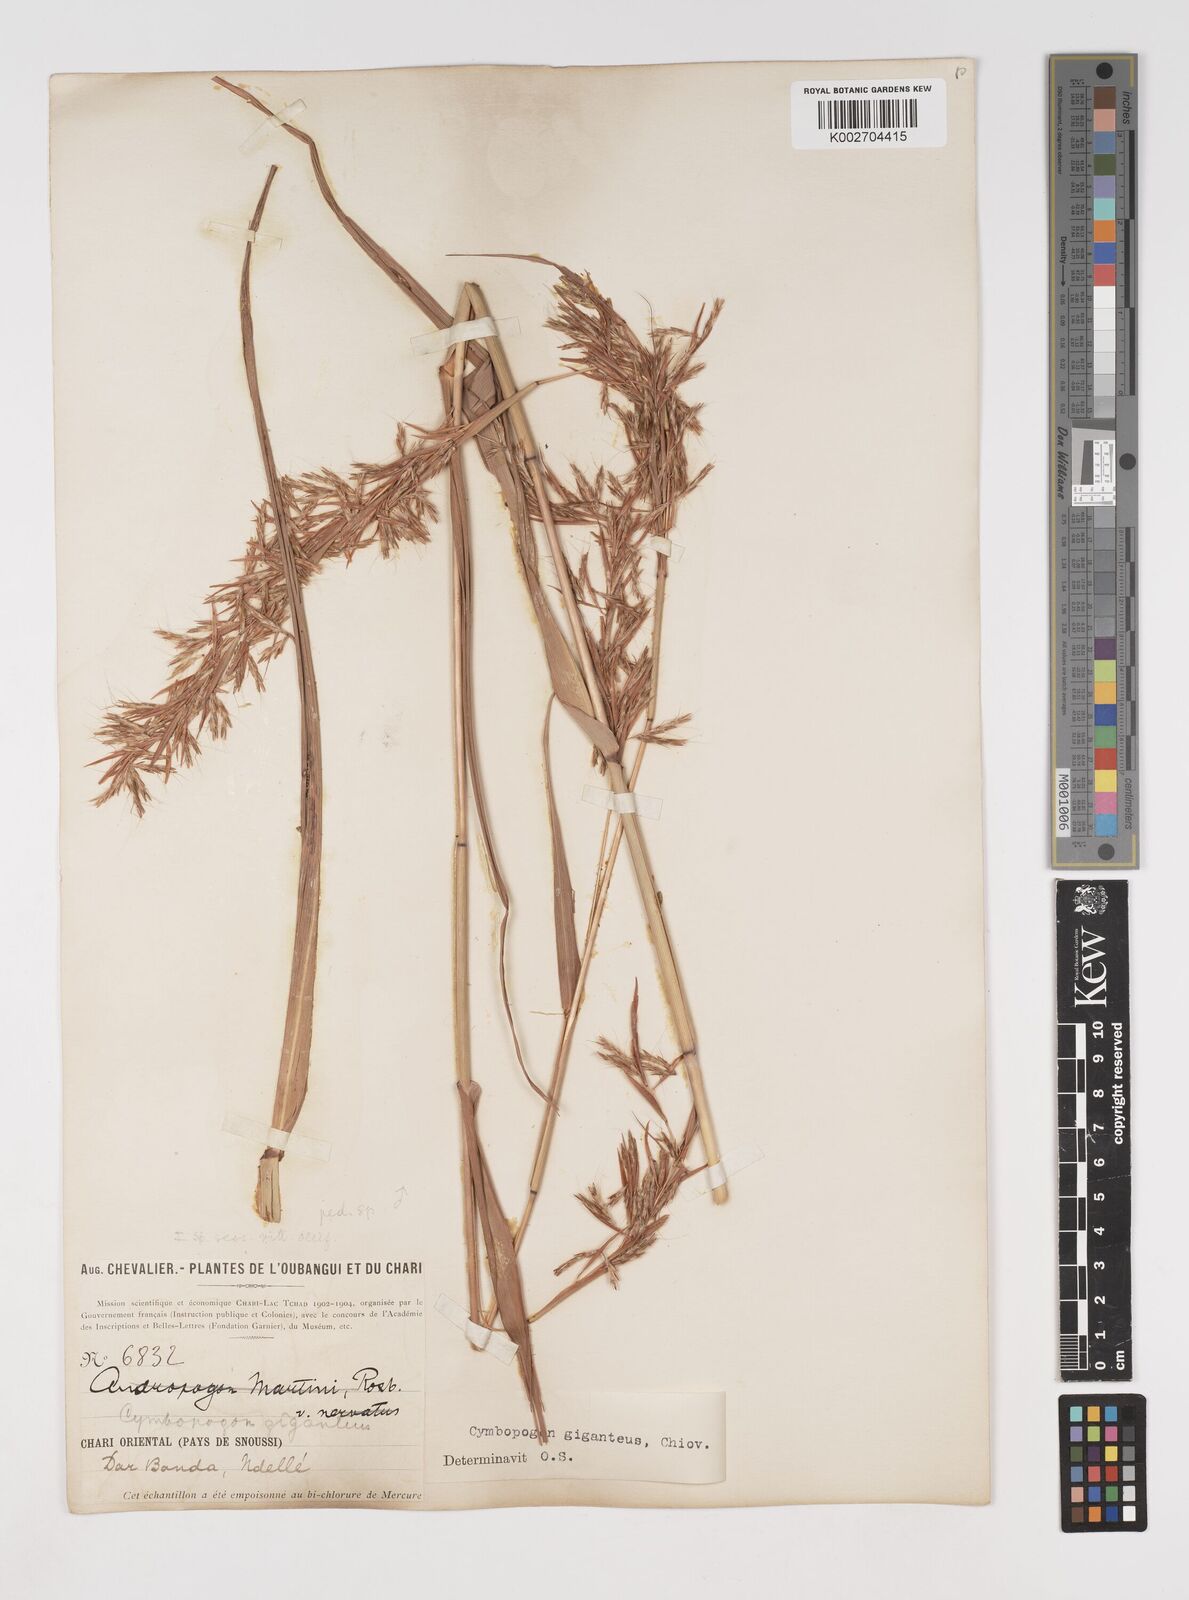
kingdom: Plantae
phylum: Tracheophyta
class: Liliopsida
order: Poales
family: Poaceae
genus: Cymbopogon
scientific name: Cymbopogon giganteus
